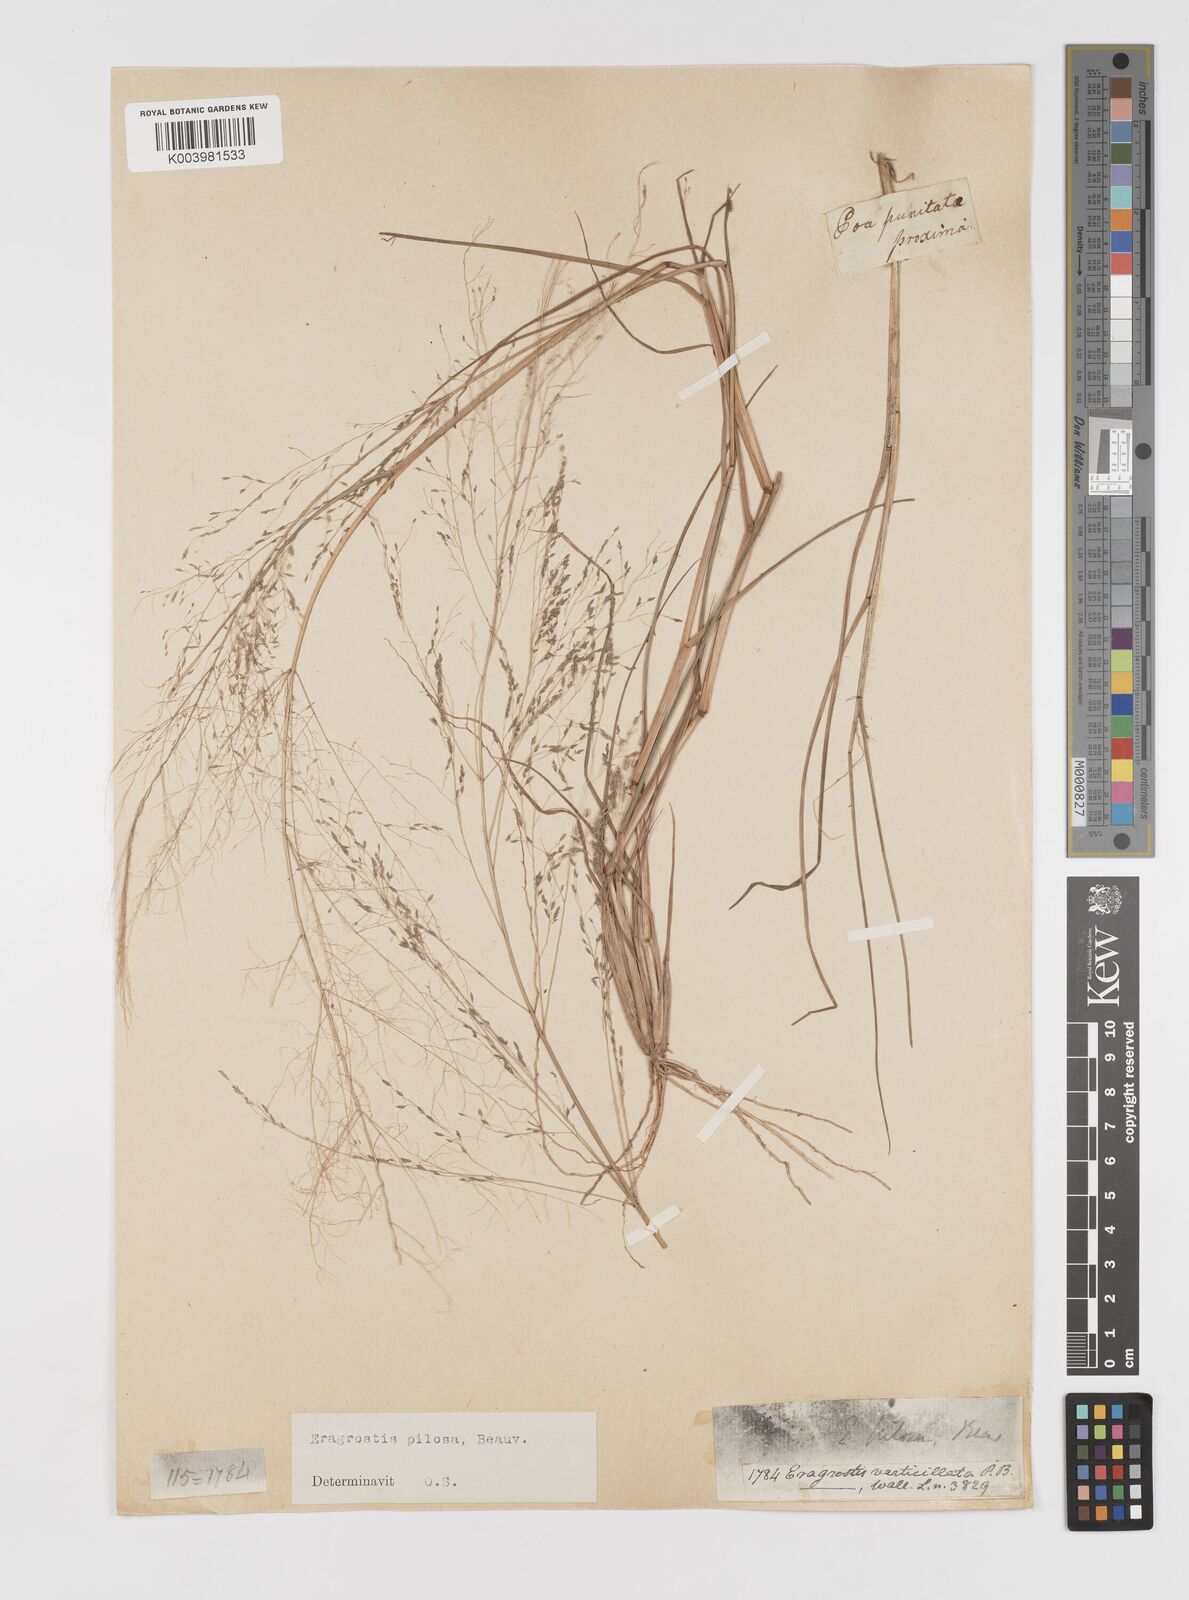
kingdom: Plantae
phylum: Tracheophyta
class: Liliopsida
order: Poales
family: Poaceae
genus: Eragrostis
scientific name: Eragrostis pilosa
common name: Indian lovegrass
